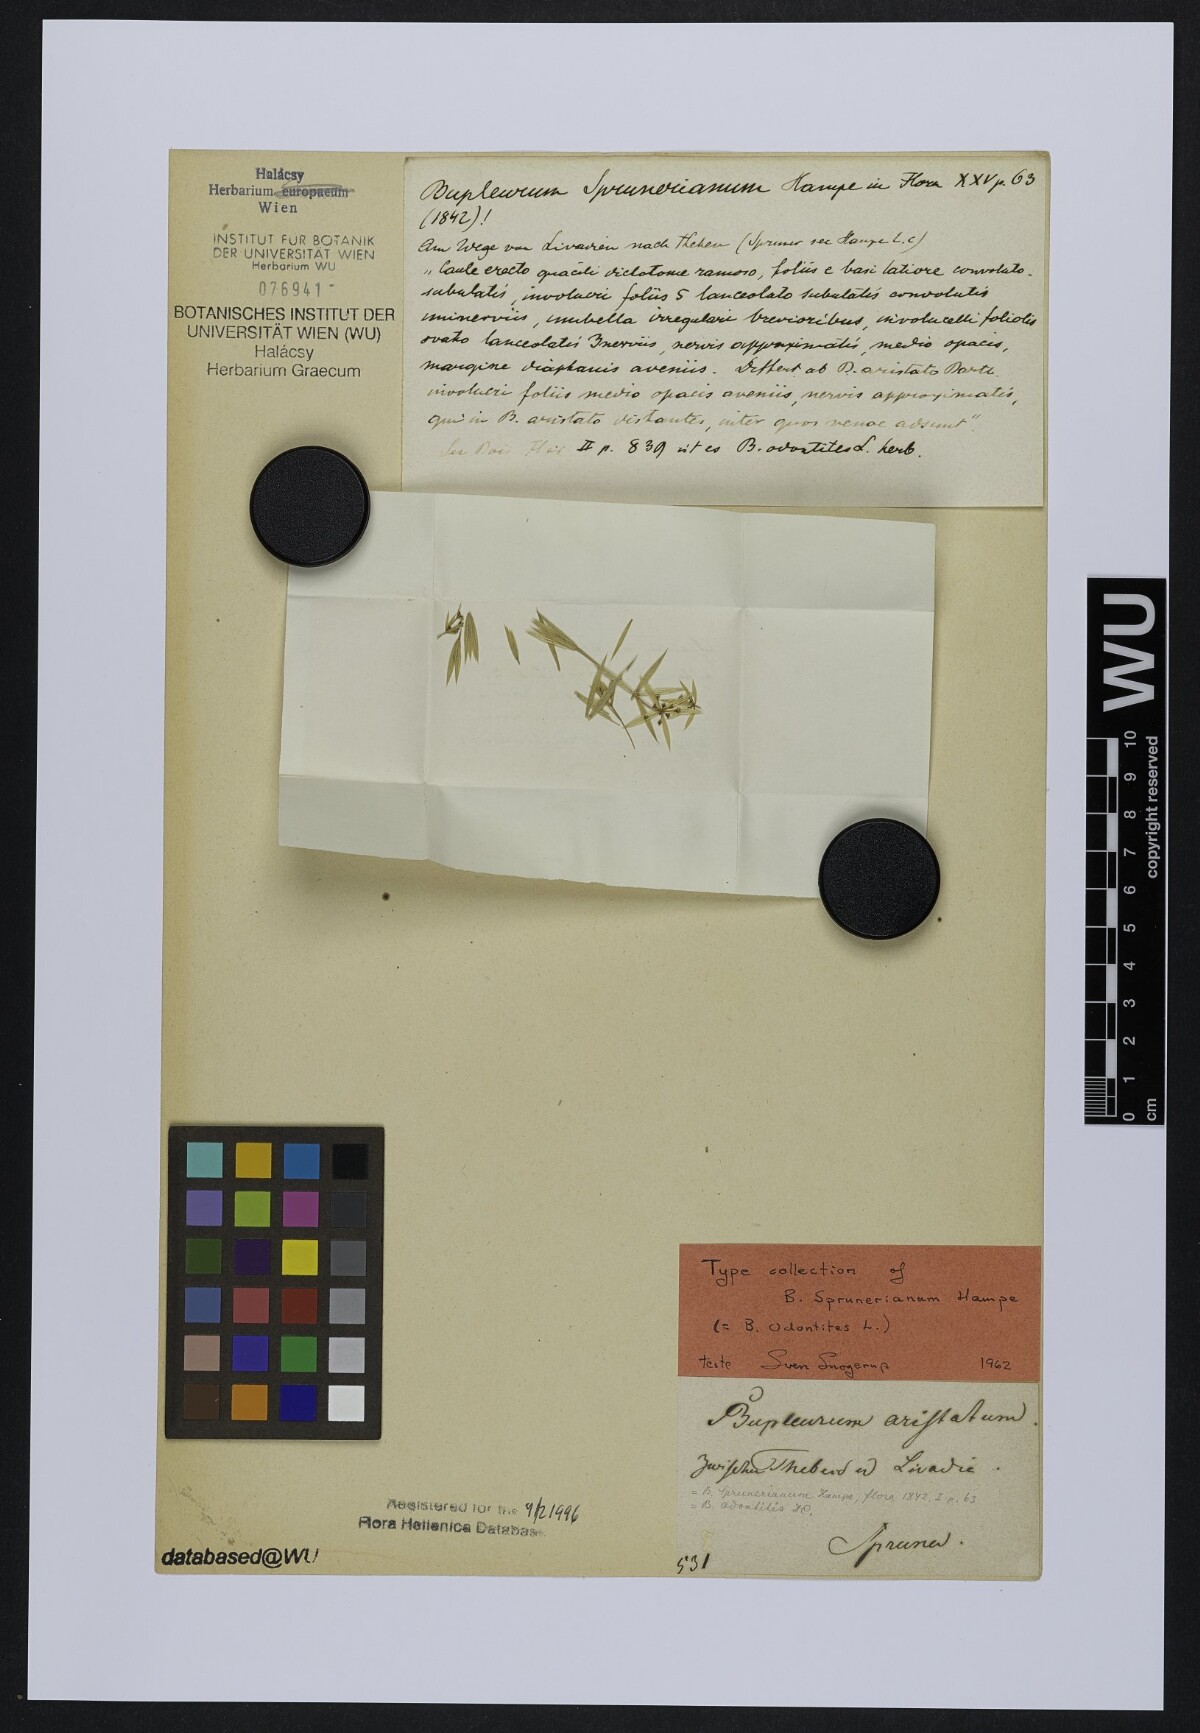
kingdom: Plantae
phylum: Tracheophyta
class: Magnoliopsida
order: Apiales
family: Apiaceae
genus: Bupleurum
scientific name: Bupleurum odontites
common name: Narrowleaf thorow wax
